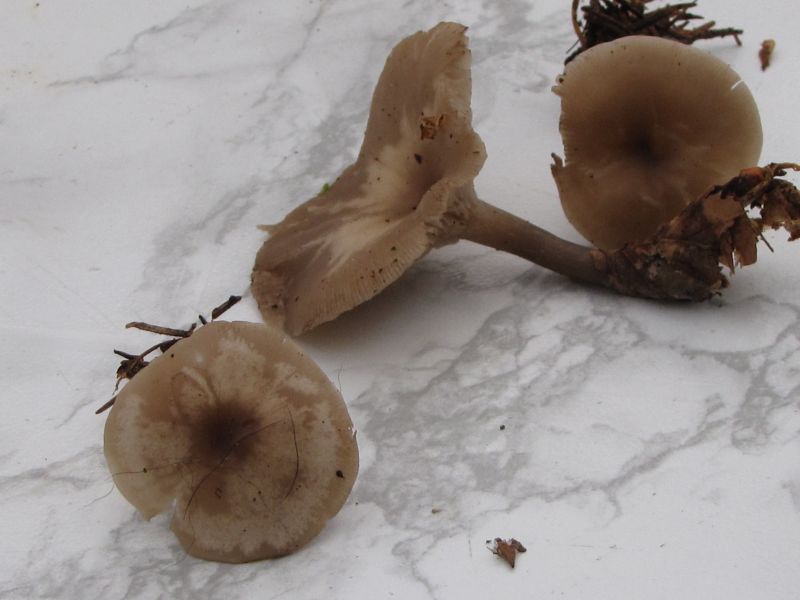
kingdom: Fungi
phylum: Basidiomycota
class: Agaricomycetes
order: Agaricales
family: Tricholomataceae
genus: Clitocybe
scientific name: Clitocybe metachroa
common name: grå tragthat
